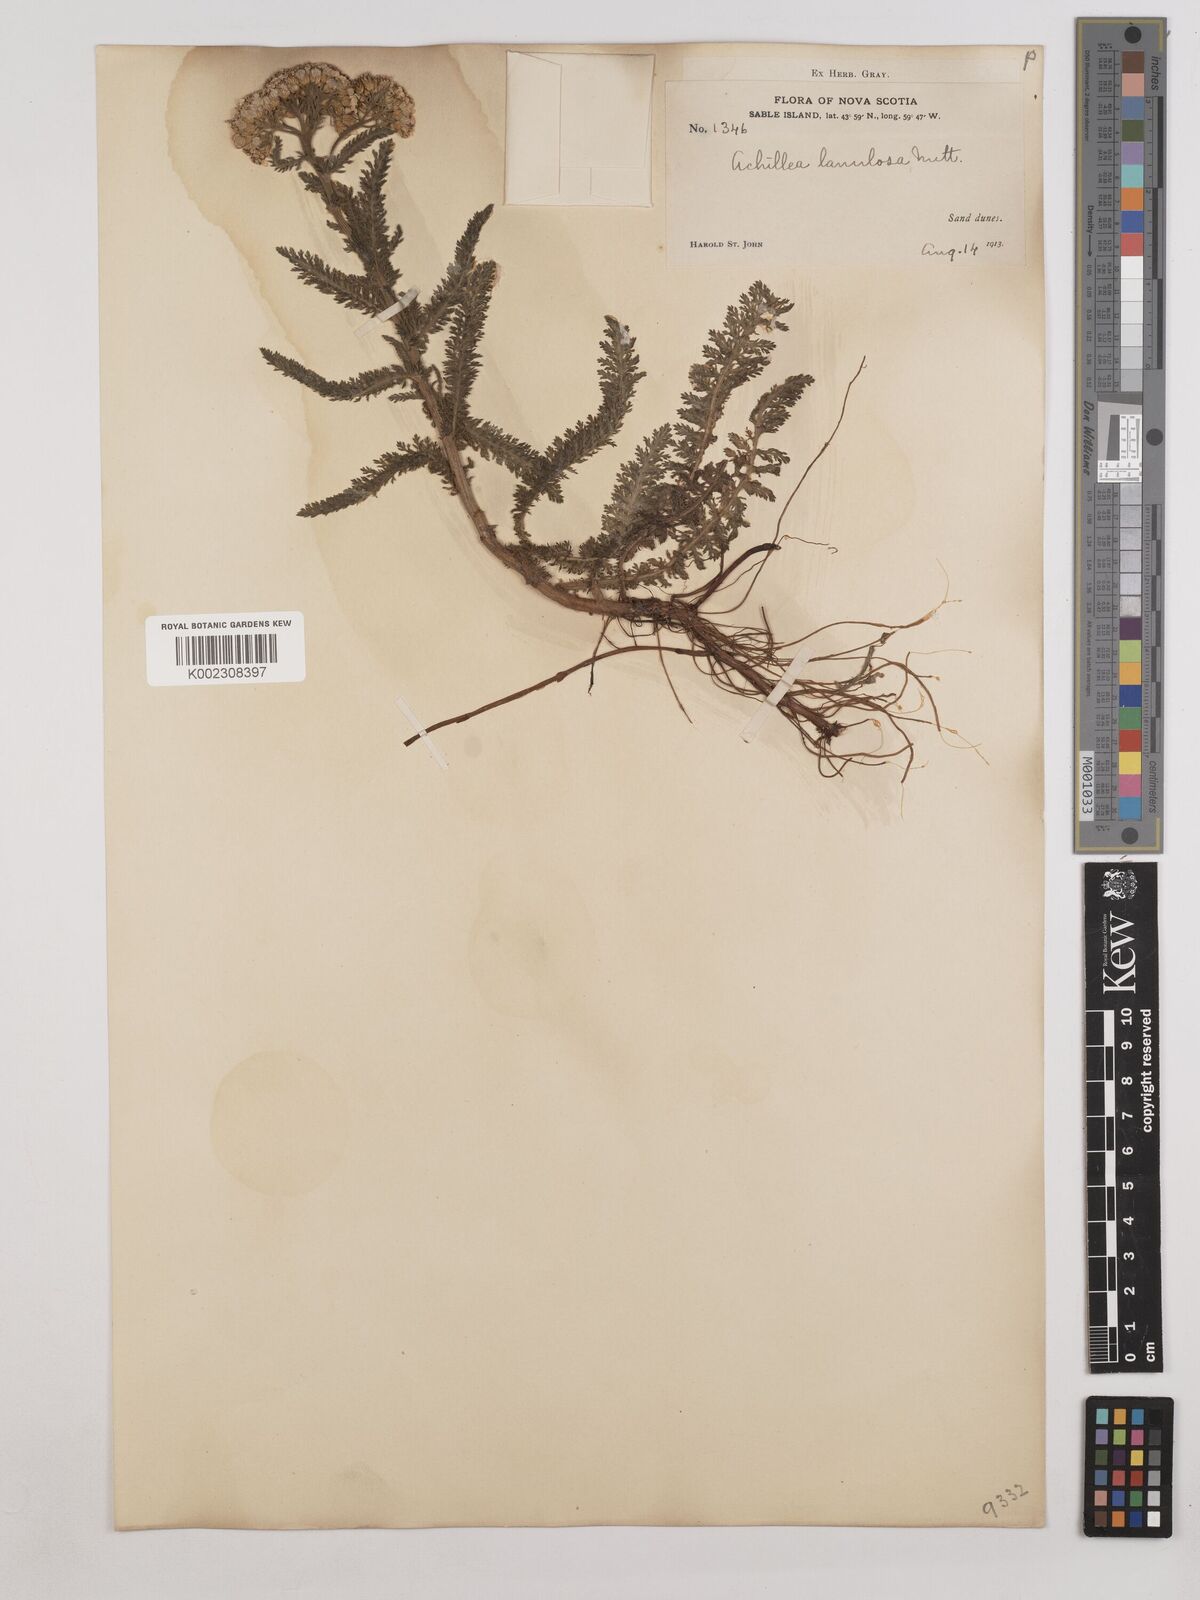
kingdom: Plantae
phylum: Tracheophyta
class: Magnoliopsida
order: Asterales
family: Asteraceae
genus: Achillea
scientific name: Achillea millefolium
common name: Yarrow
